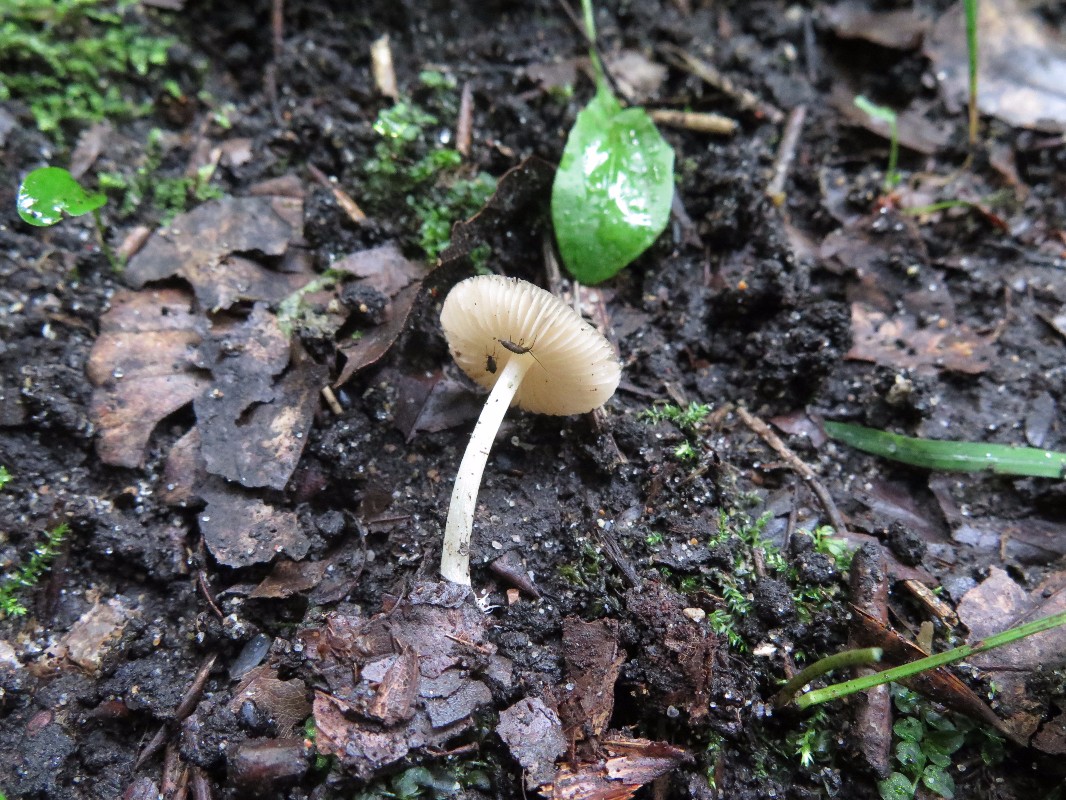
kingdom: Fungi
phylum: Basidiomycota
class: Agaricomycetes
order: Agaricales
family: Pluteaceae
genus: Pluteus
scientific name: Pluteus satur
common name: randstribet skærmhat
